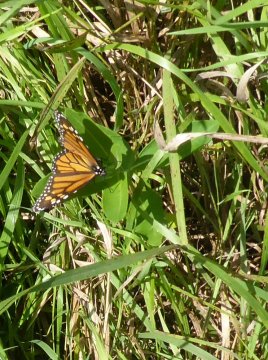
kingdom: Animalia
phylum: Arthropoda
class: Insecta
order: Lepidoptera
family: Nymphalidae
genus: Danaus
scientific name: Danaus plexippus
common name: Monarch
